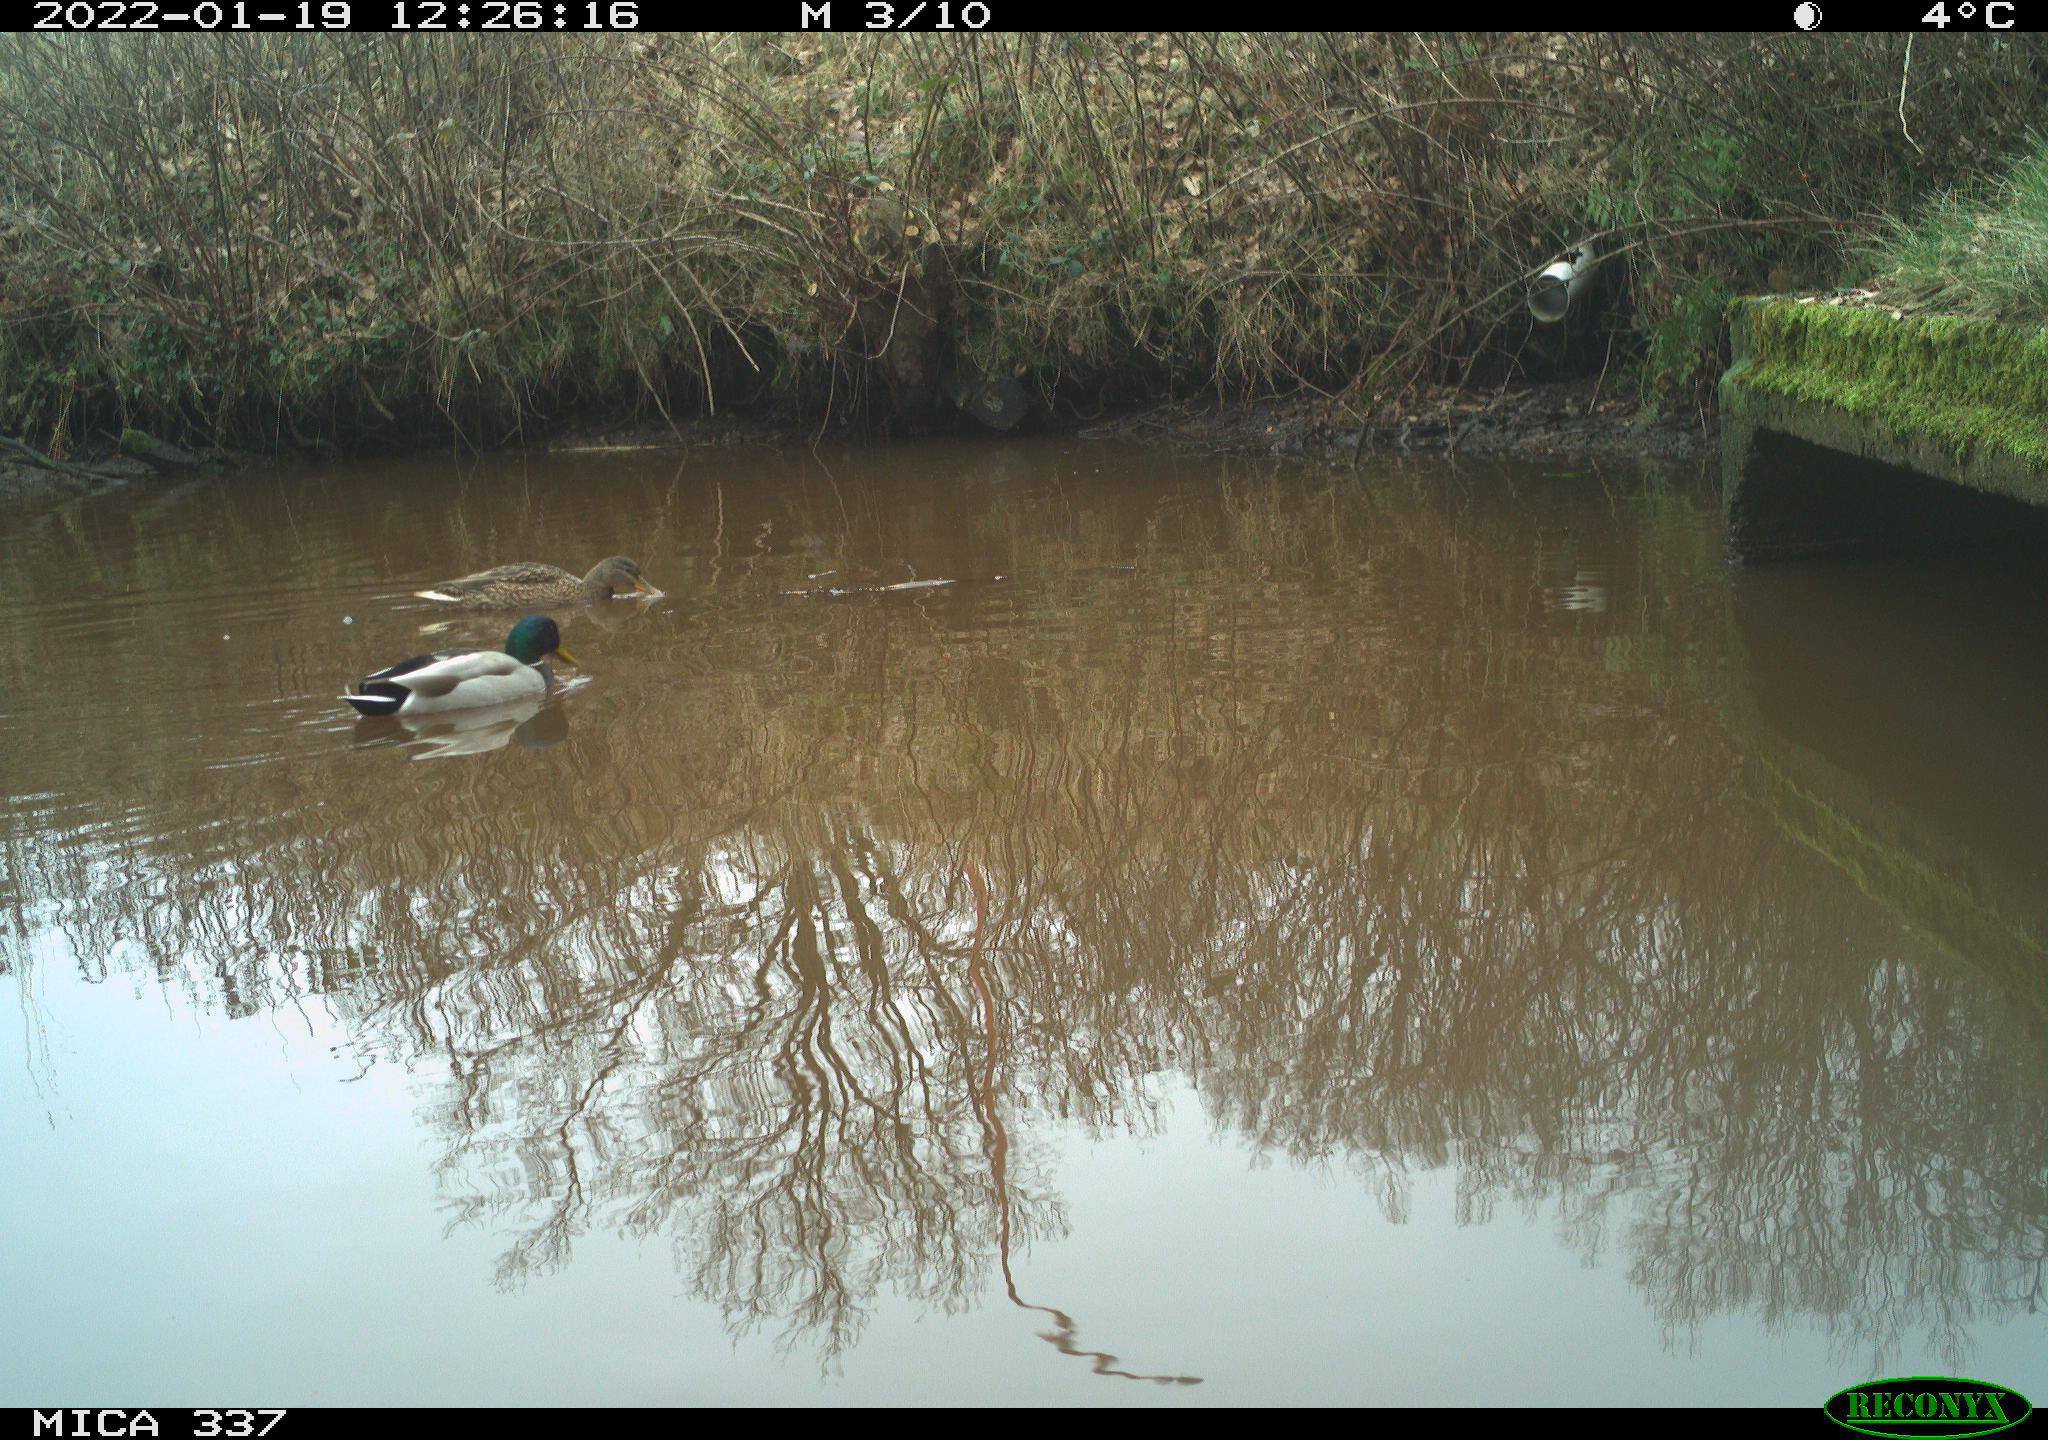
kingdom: Animalia
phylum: Chordata
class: Aves
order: Anseriformes
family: Anatidae
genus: Anas
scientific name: Anas platyrhynchos
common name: Mallard
